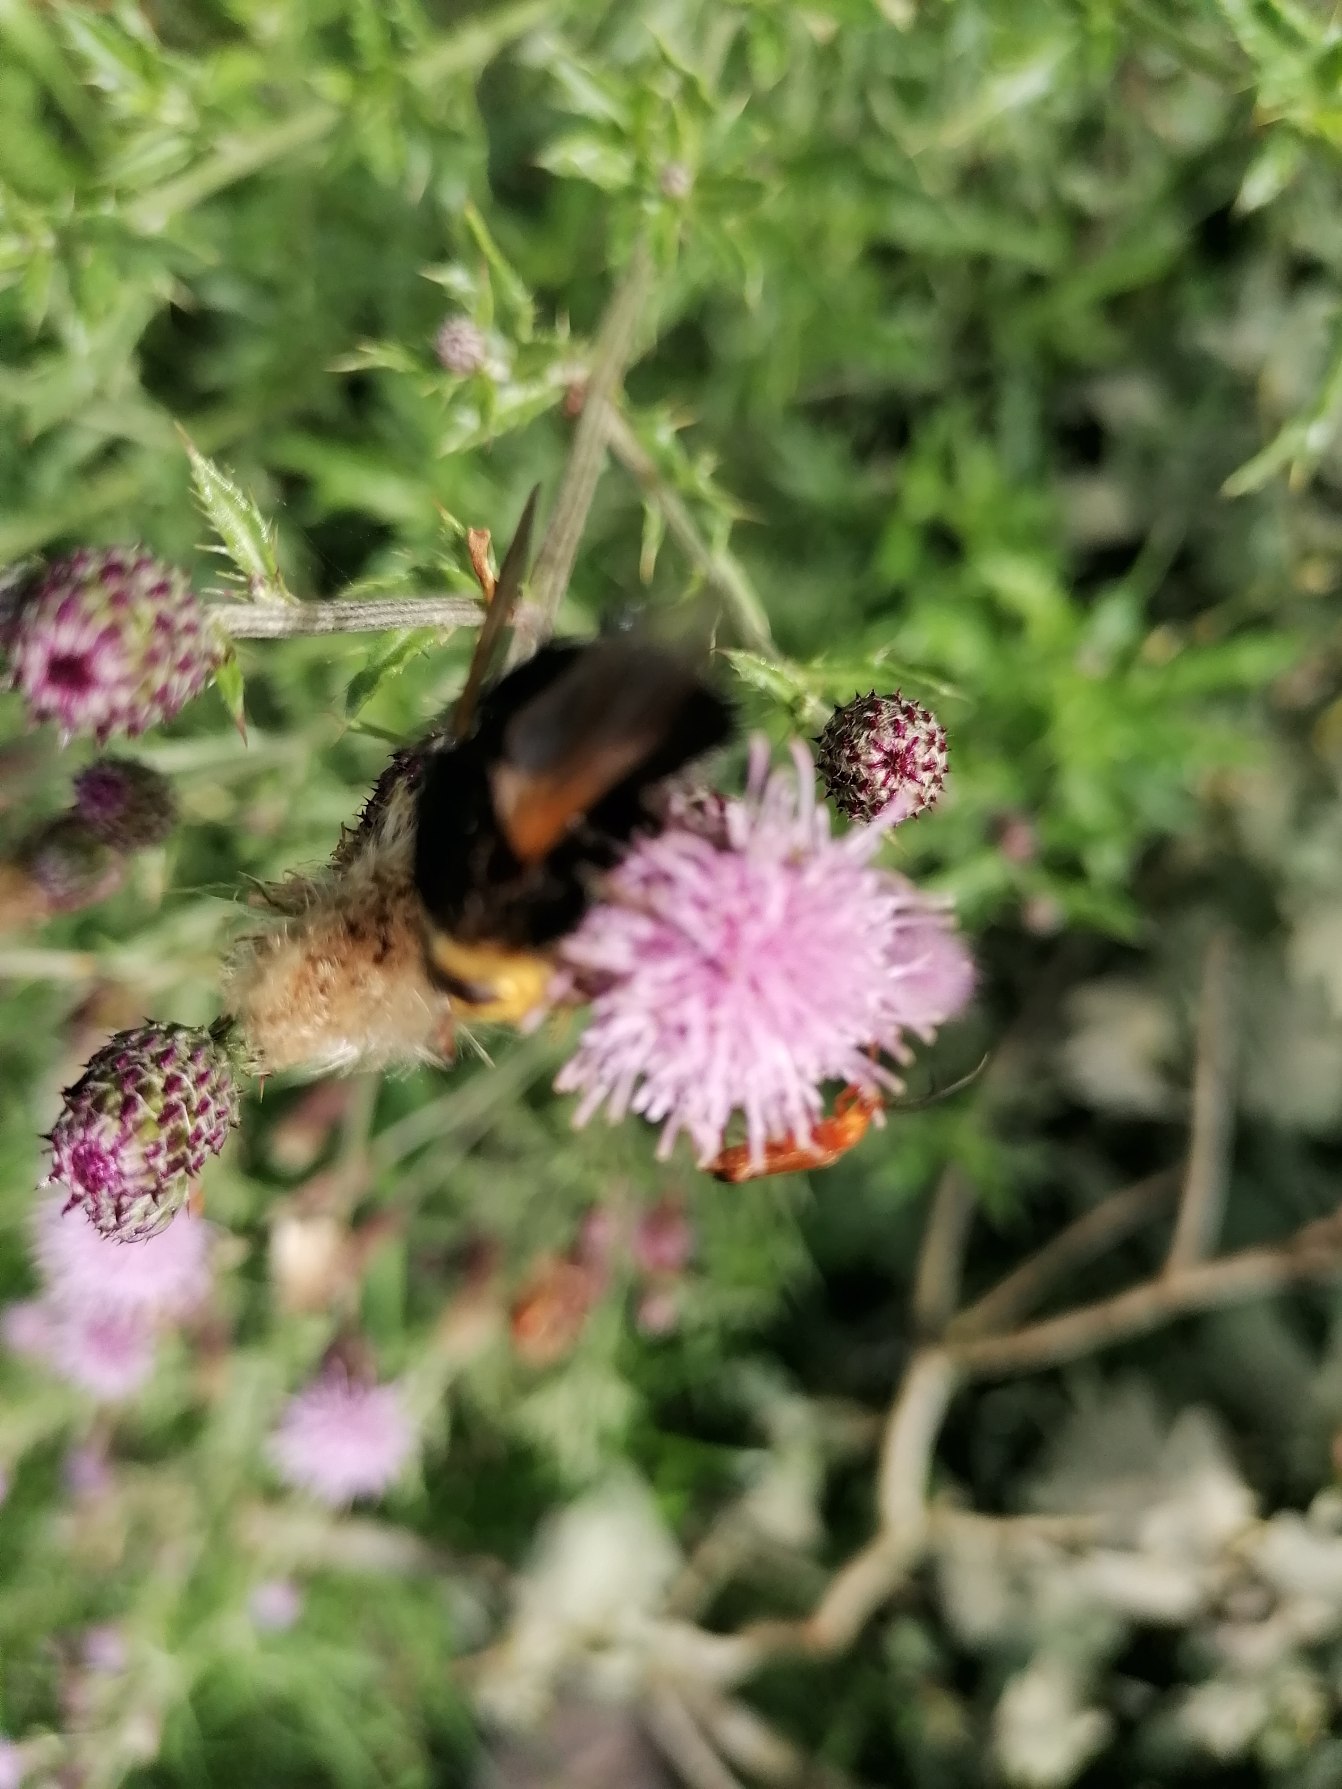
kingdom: Animalia
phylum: Arthropoda
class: Insecta
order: Diptera
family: Tachinidae
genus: Tachina
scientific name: Tachina grossa
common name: Kæmpefluen Harald
